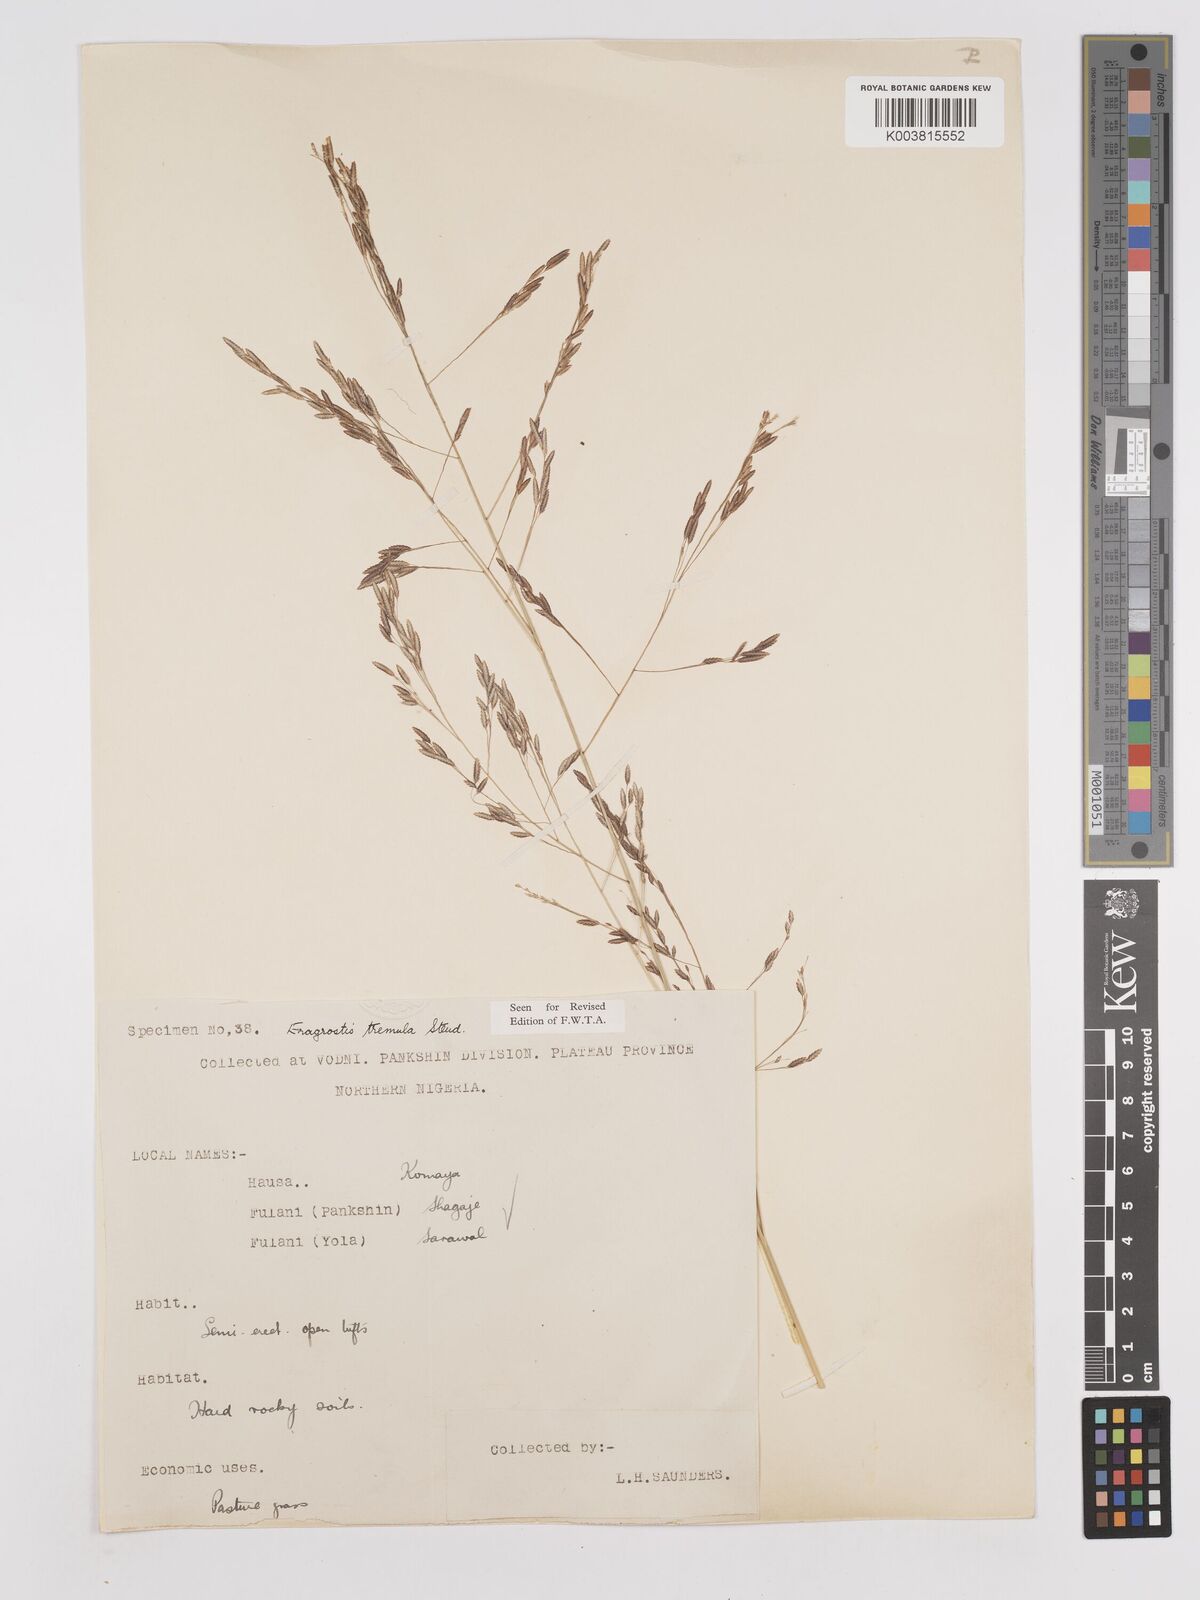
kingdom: Plantae
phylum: Tracheophyta
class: Liliopsida
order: Poales
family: Poaceae
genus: Eragrostis
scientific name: Eragrostis tremula
